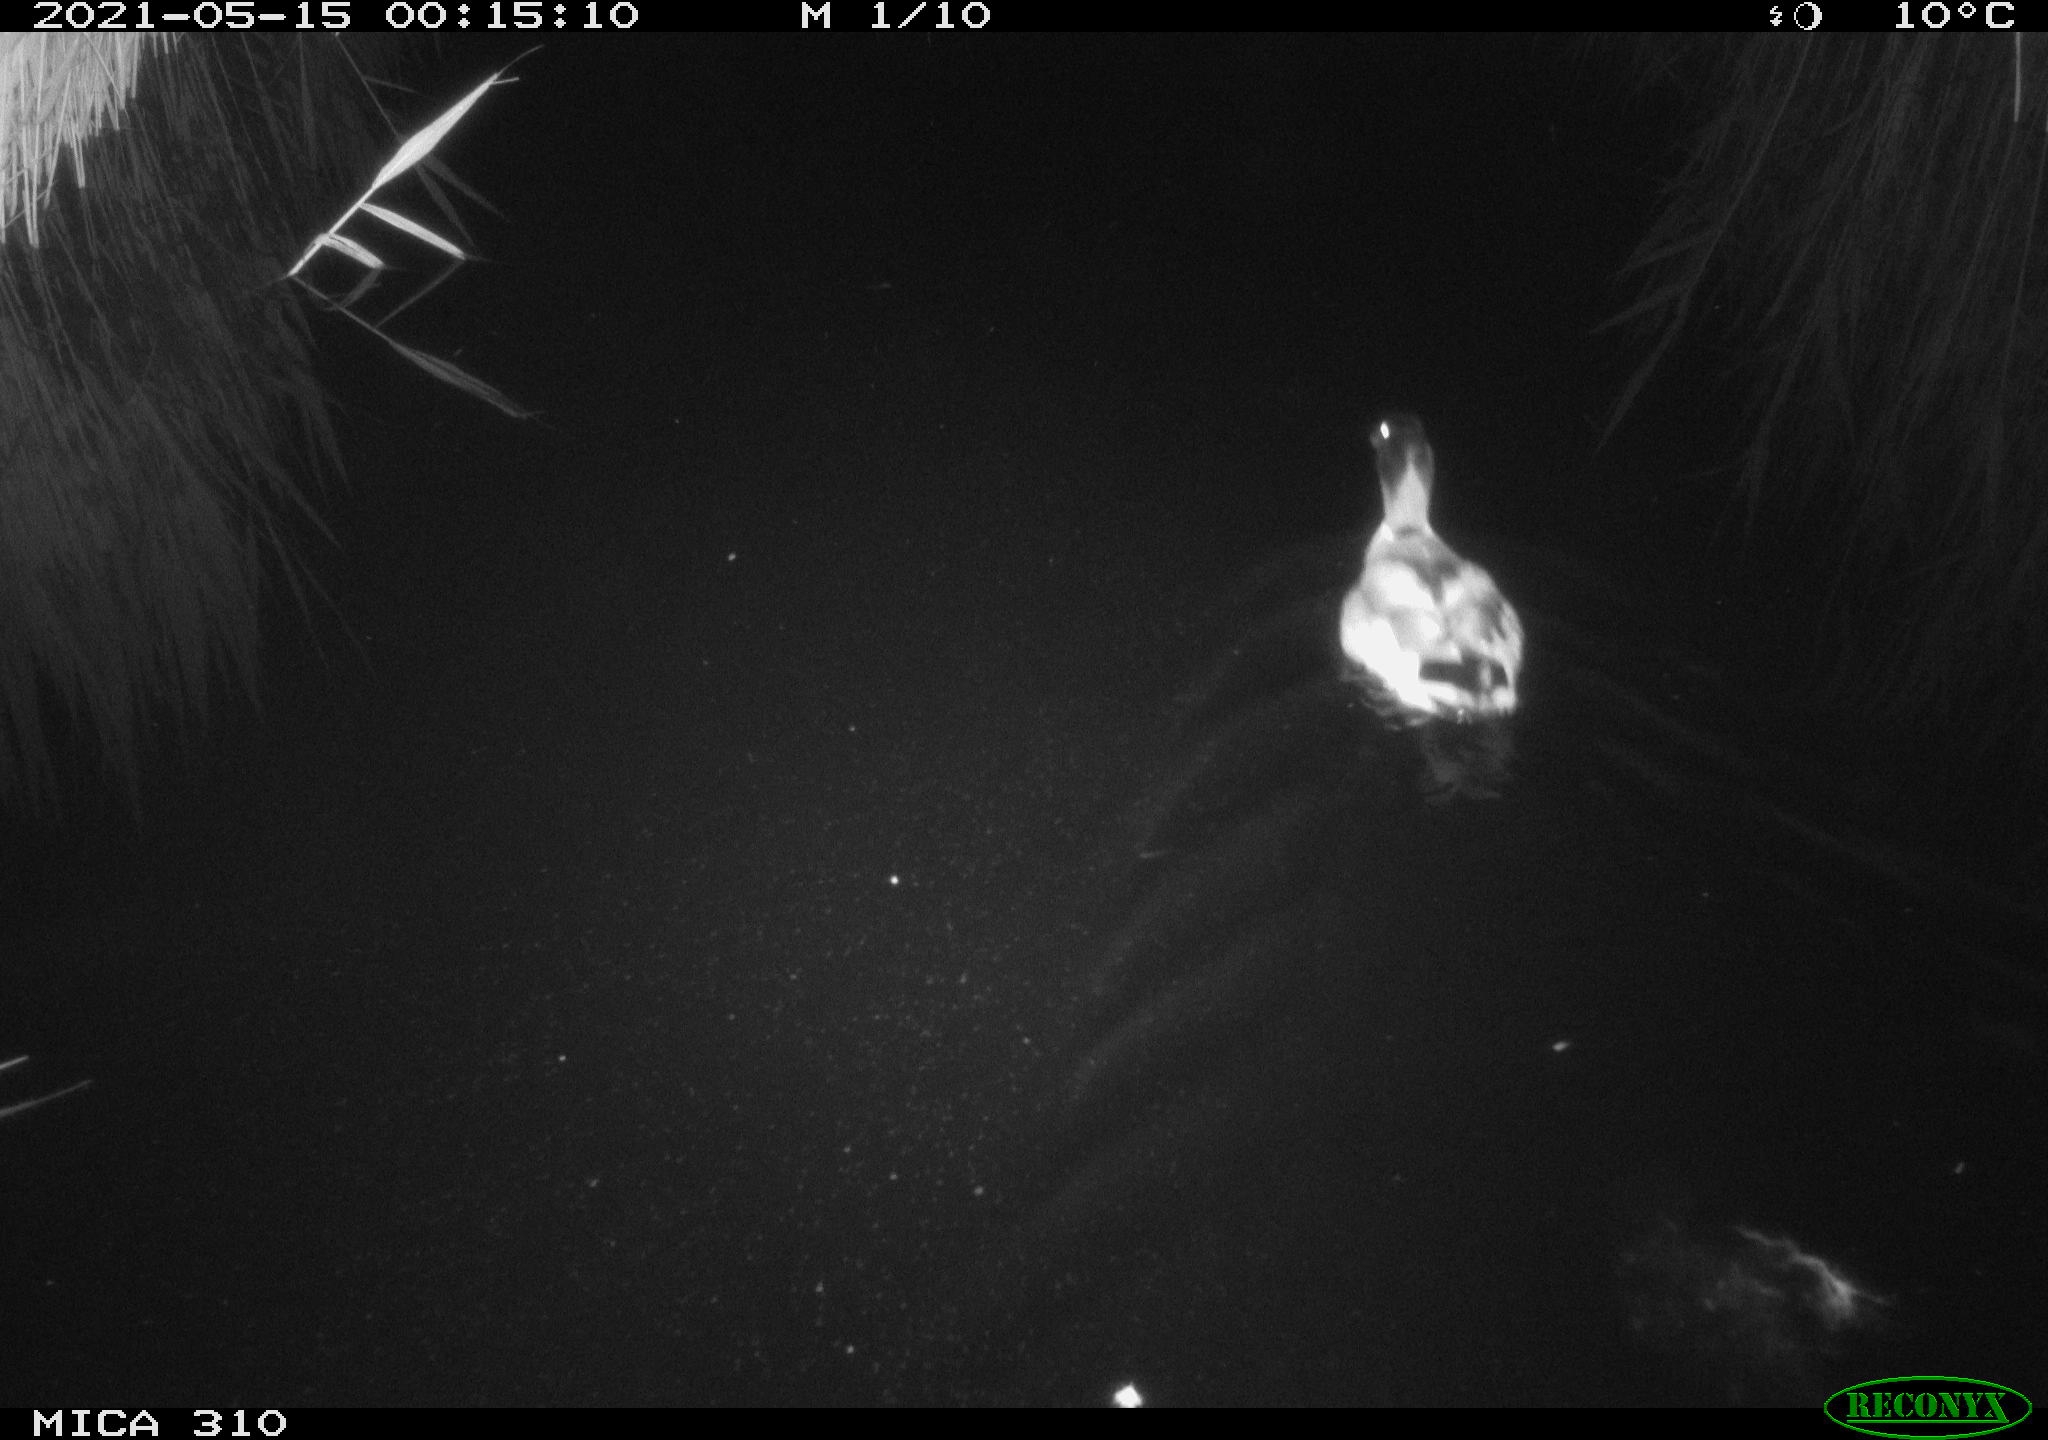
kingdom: Animalia
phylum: Chordata
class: Aves
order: Anseriformes
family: Anatidae
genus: Anas
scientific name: Anas platyrhynchos
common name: Mallard
